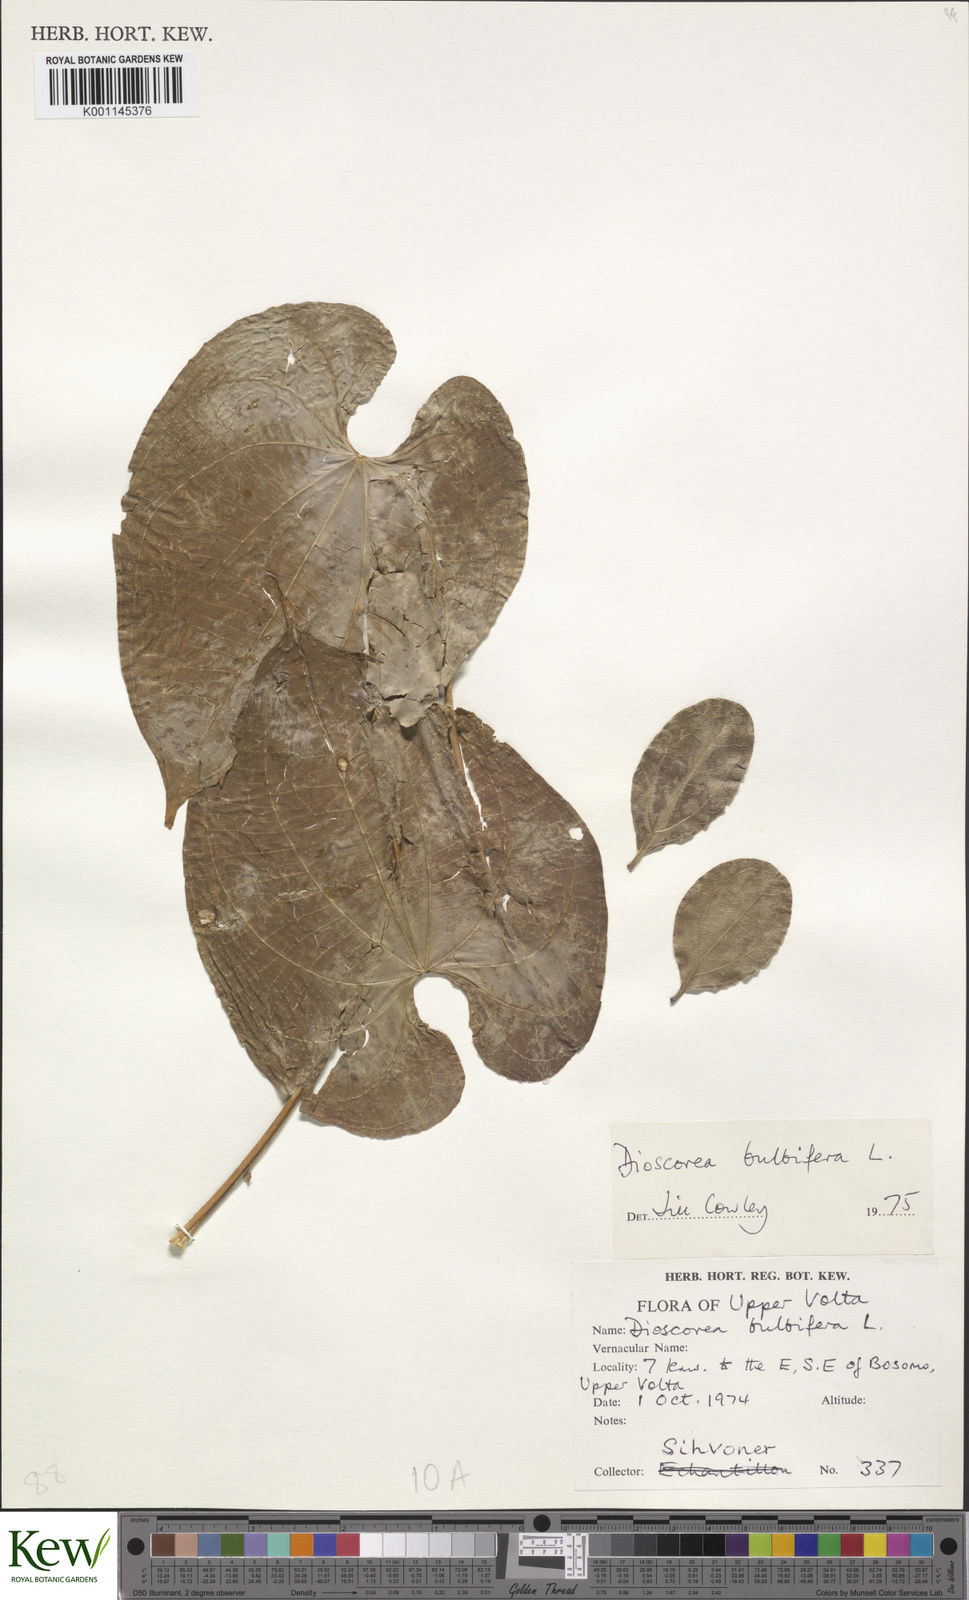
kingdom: Plantae
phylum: Tracheophyta
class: Liliopsida
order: Dioscoreales
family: Dioscoreaceae
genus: Dioscorea
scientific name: Dioscorea bulbifera
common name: Air yam
